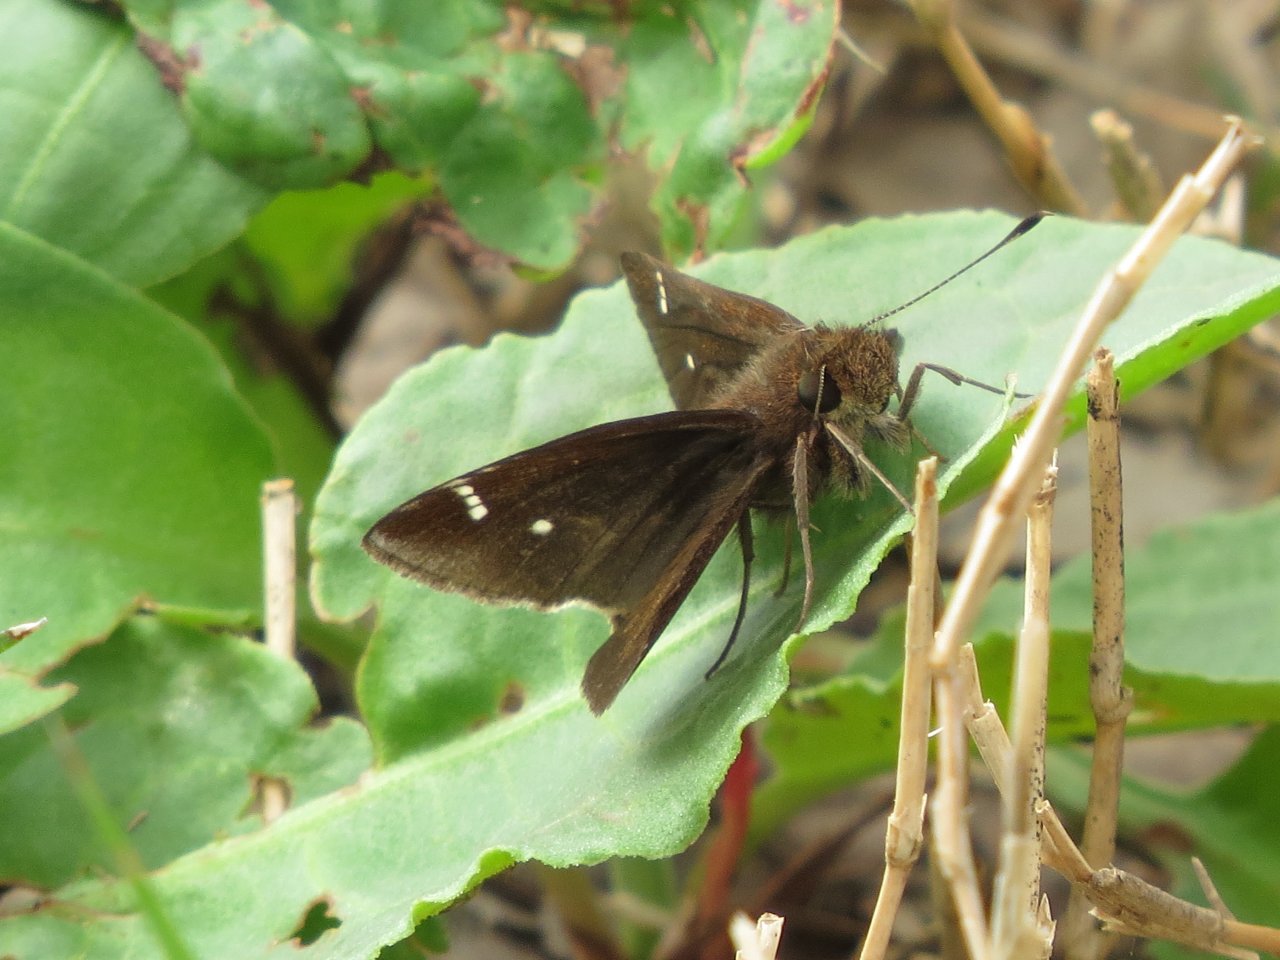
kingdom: Animalia
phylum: Arthropoda
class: Insecta
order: Lepidoptera
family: Hesperiidae
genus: Lerema
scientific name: Lerema accius
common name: Clouded Skipper
